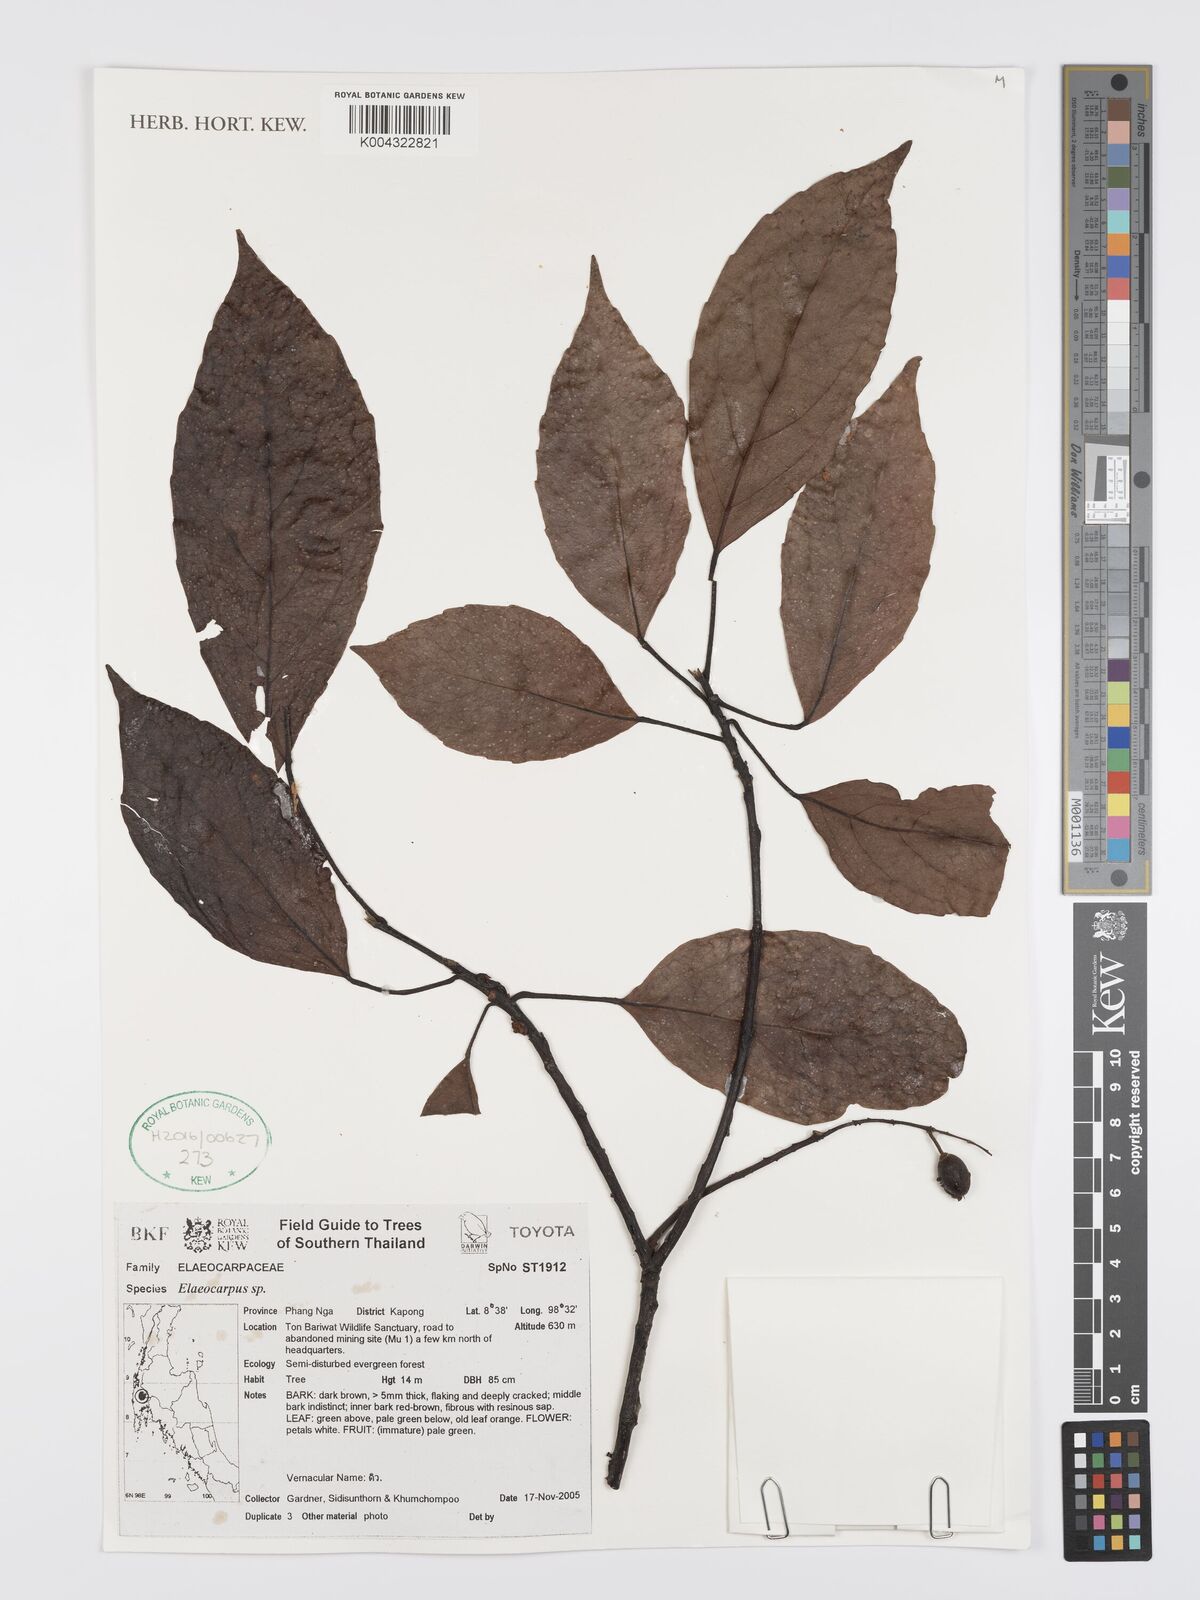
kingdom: Plantae
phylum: Tracheophyta
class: Magnoliopsida
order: Oxalidales
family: Elaeocarpaceae
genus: Elaeocarpus
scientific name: Elaeocarpus
